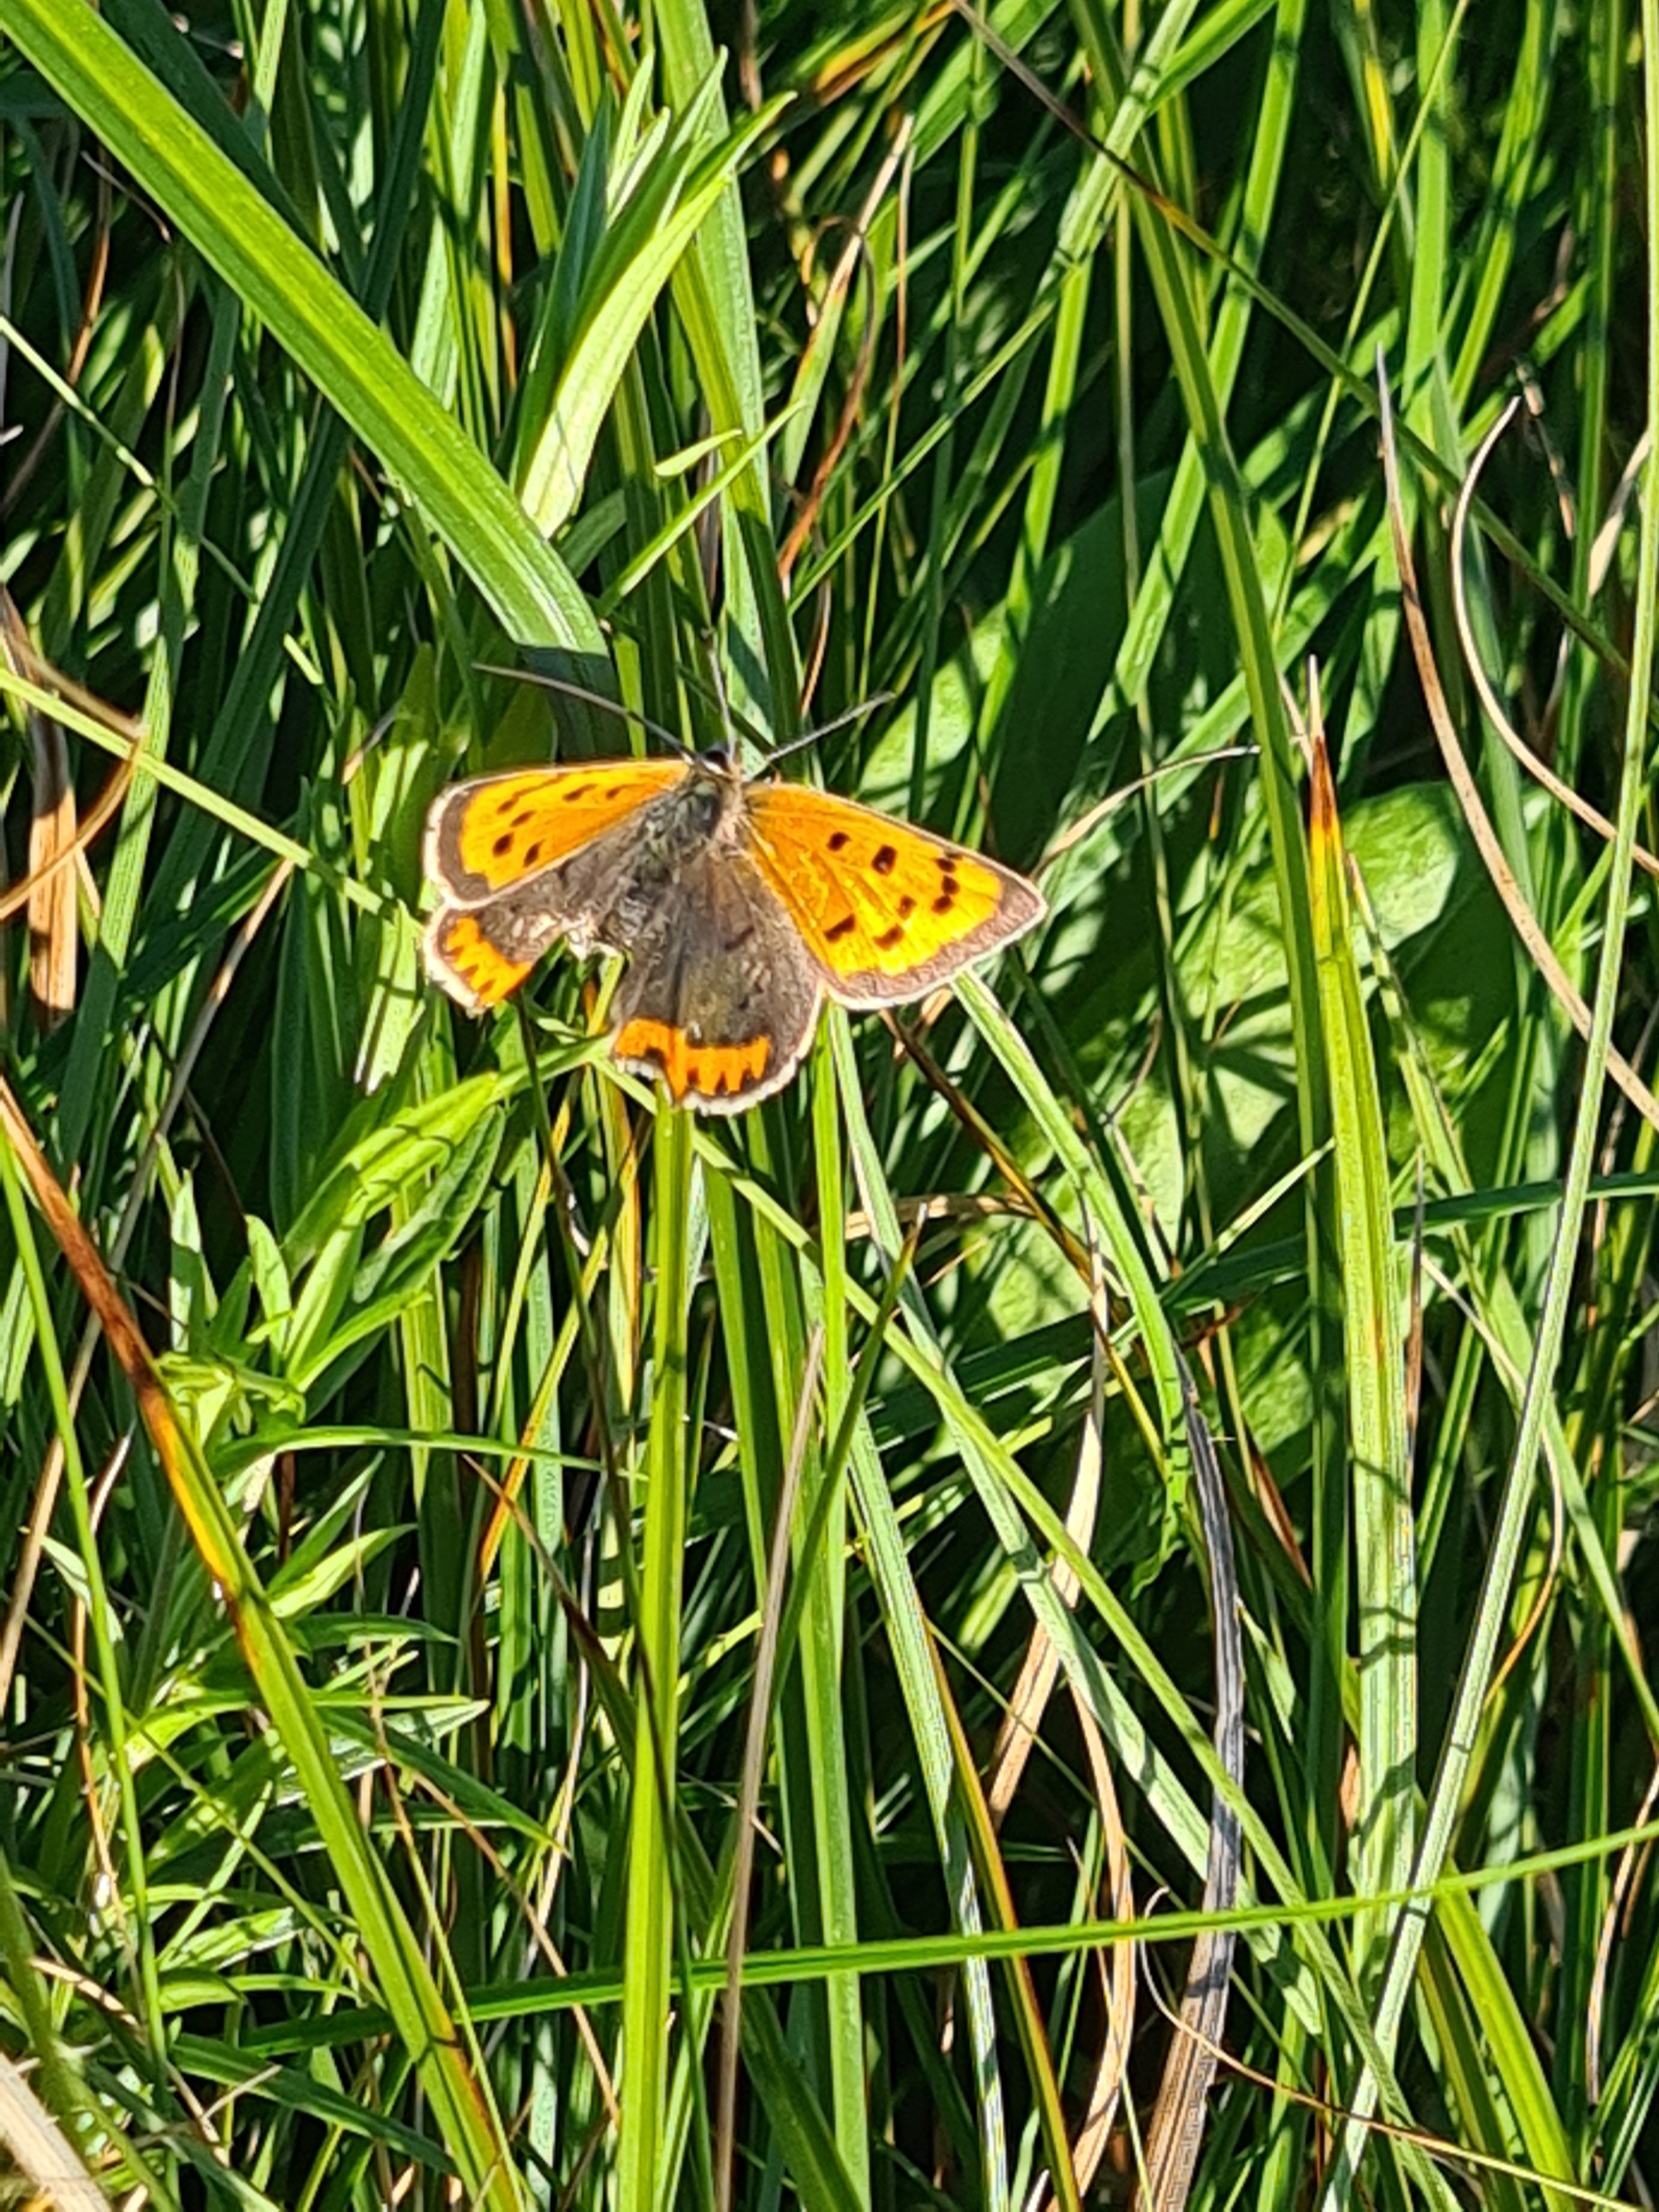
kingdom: Animalia
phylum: Arthropoda
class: Insecta
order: Lepidoptera
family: Lycaenidae
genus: Lycaena
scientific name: Lycaena phlaeas
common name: Lille ildfugl
